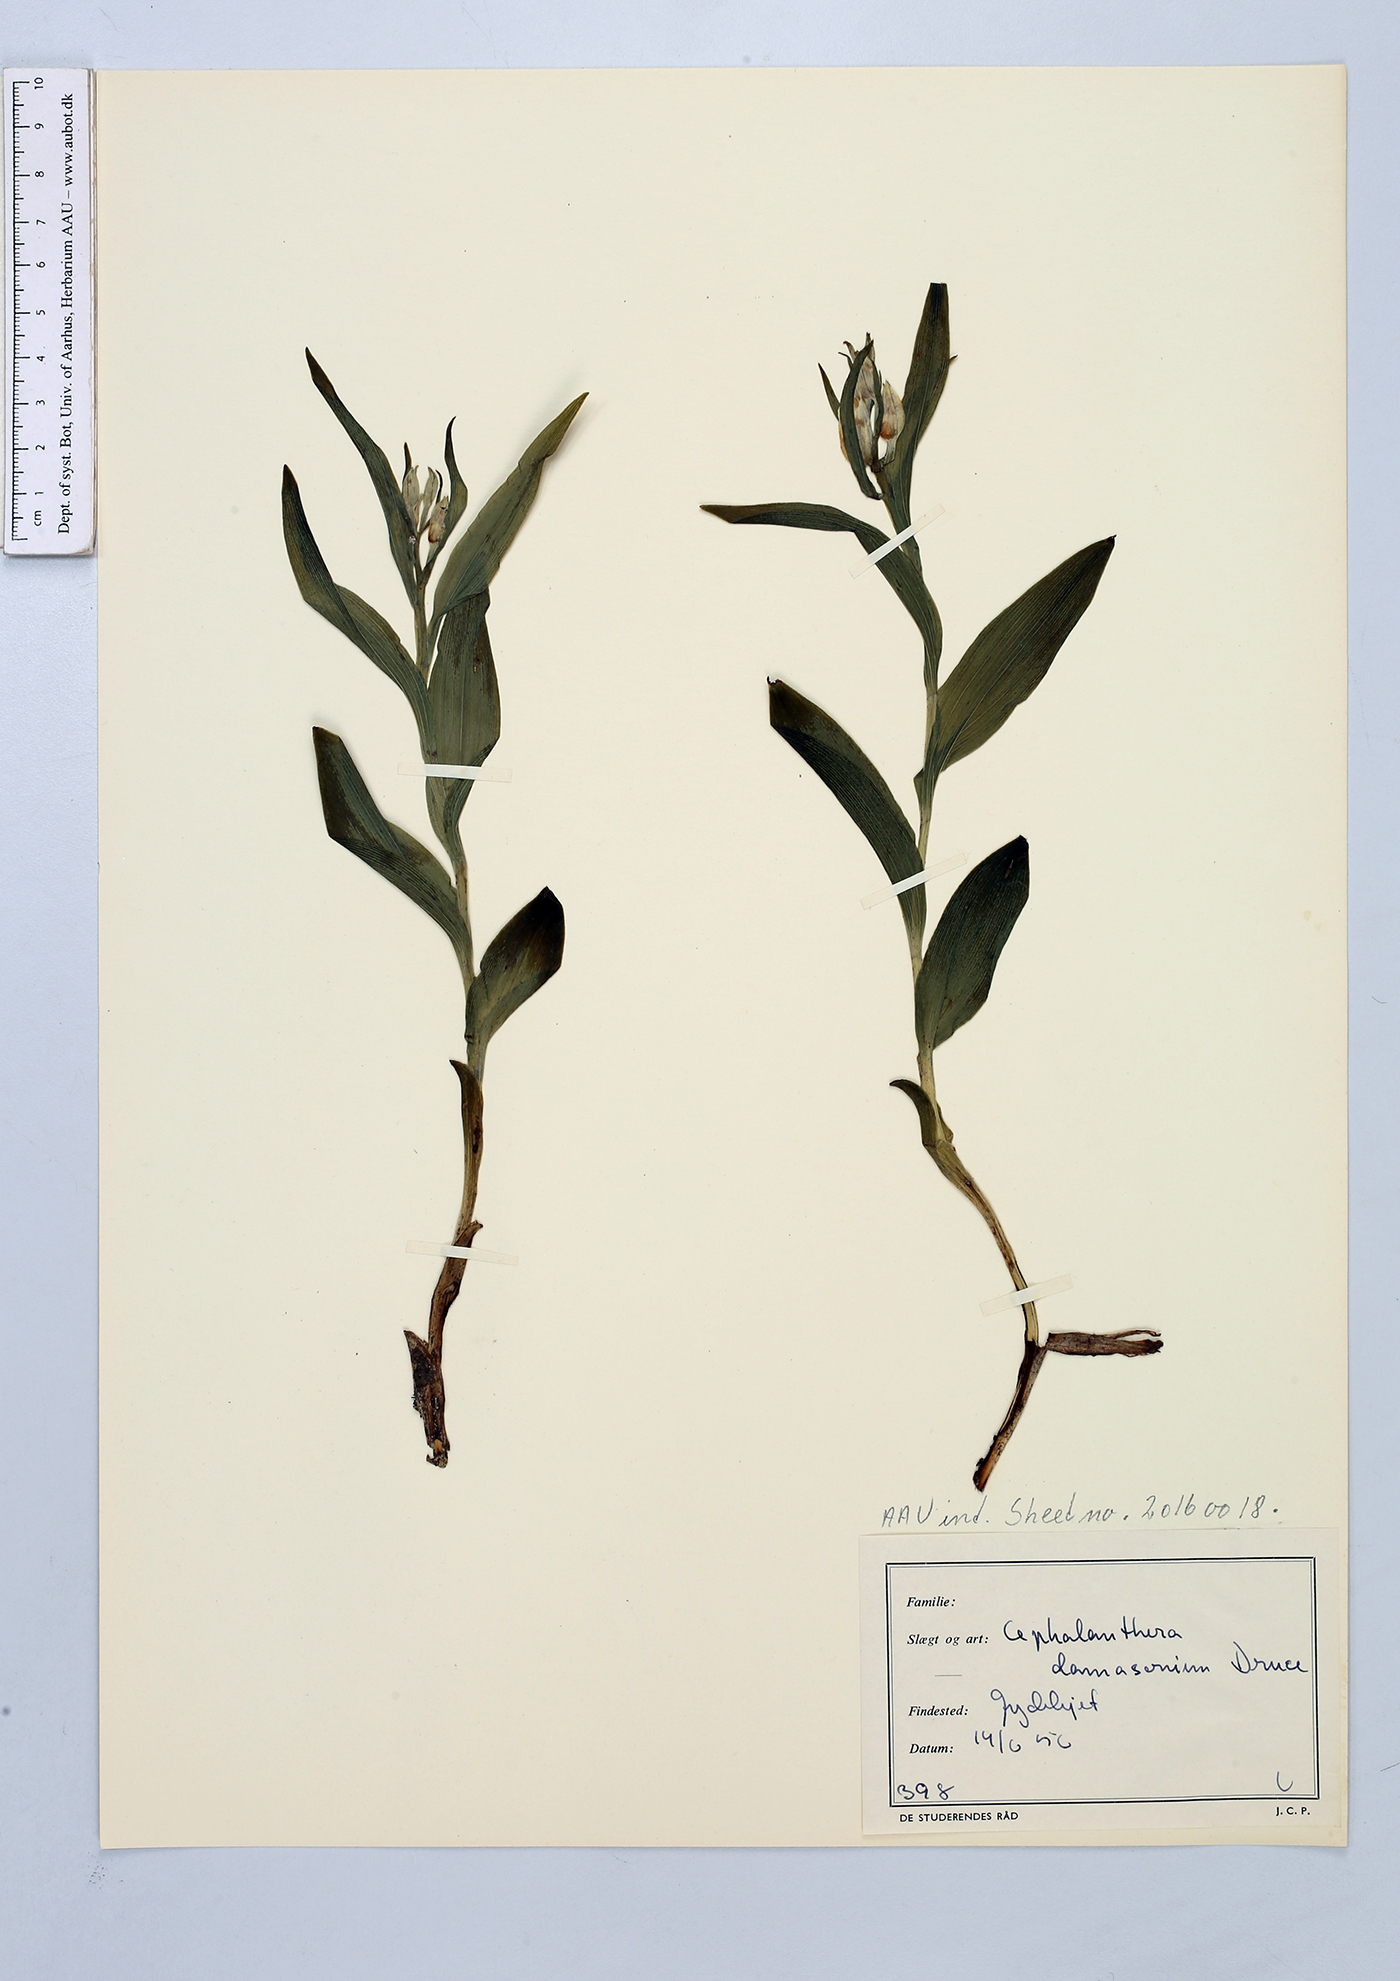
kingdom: Plantae
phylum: Tracheophyta
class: Liliopsida
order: Asparagales
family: Orchidaceae
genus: Cephalanthera
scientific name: Cephalanthera damasonium
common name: White helleborine
